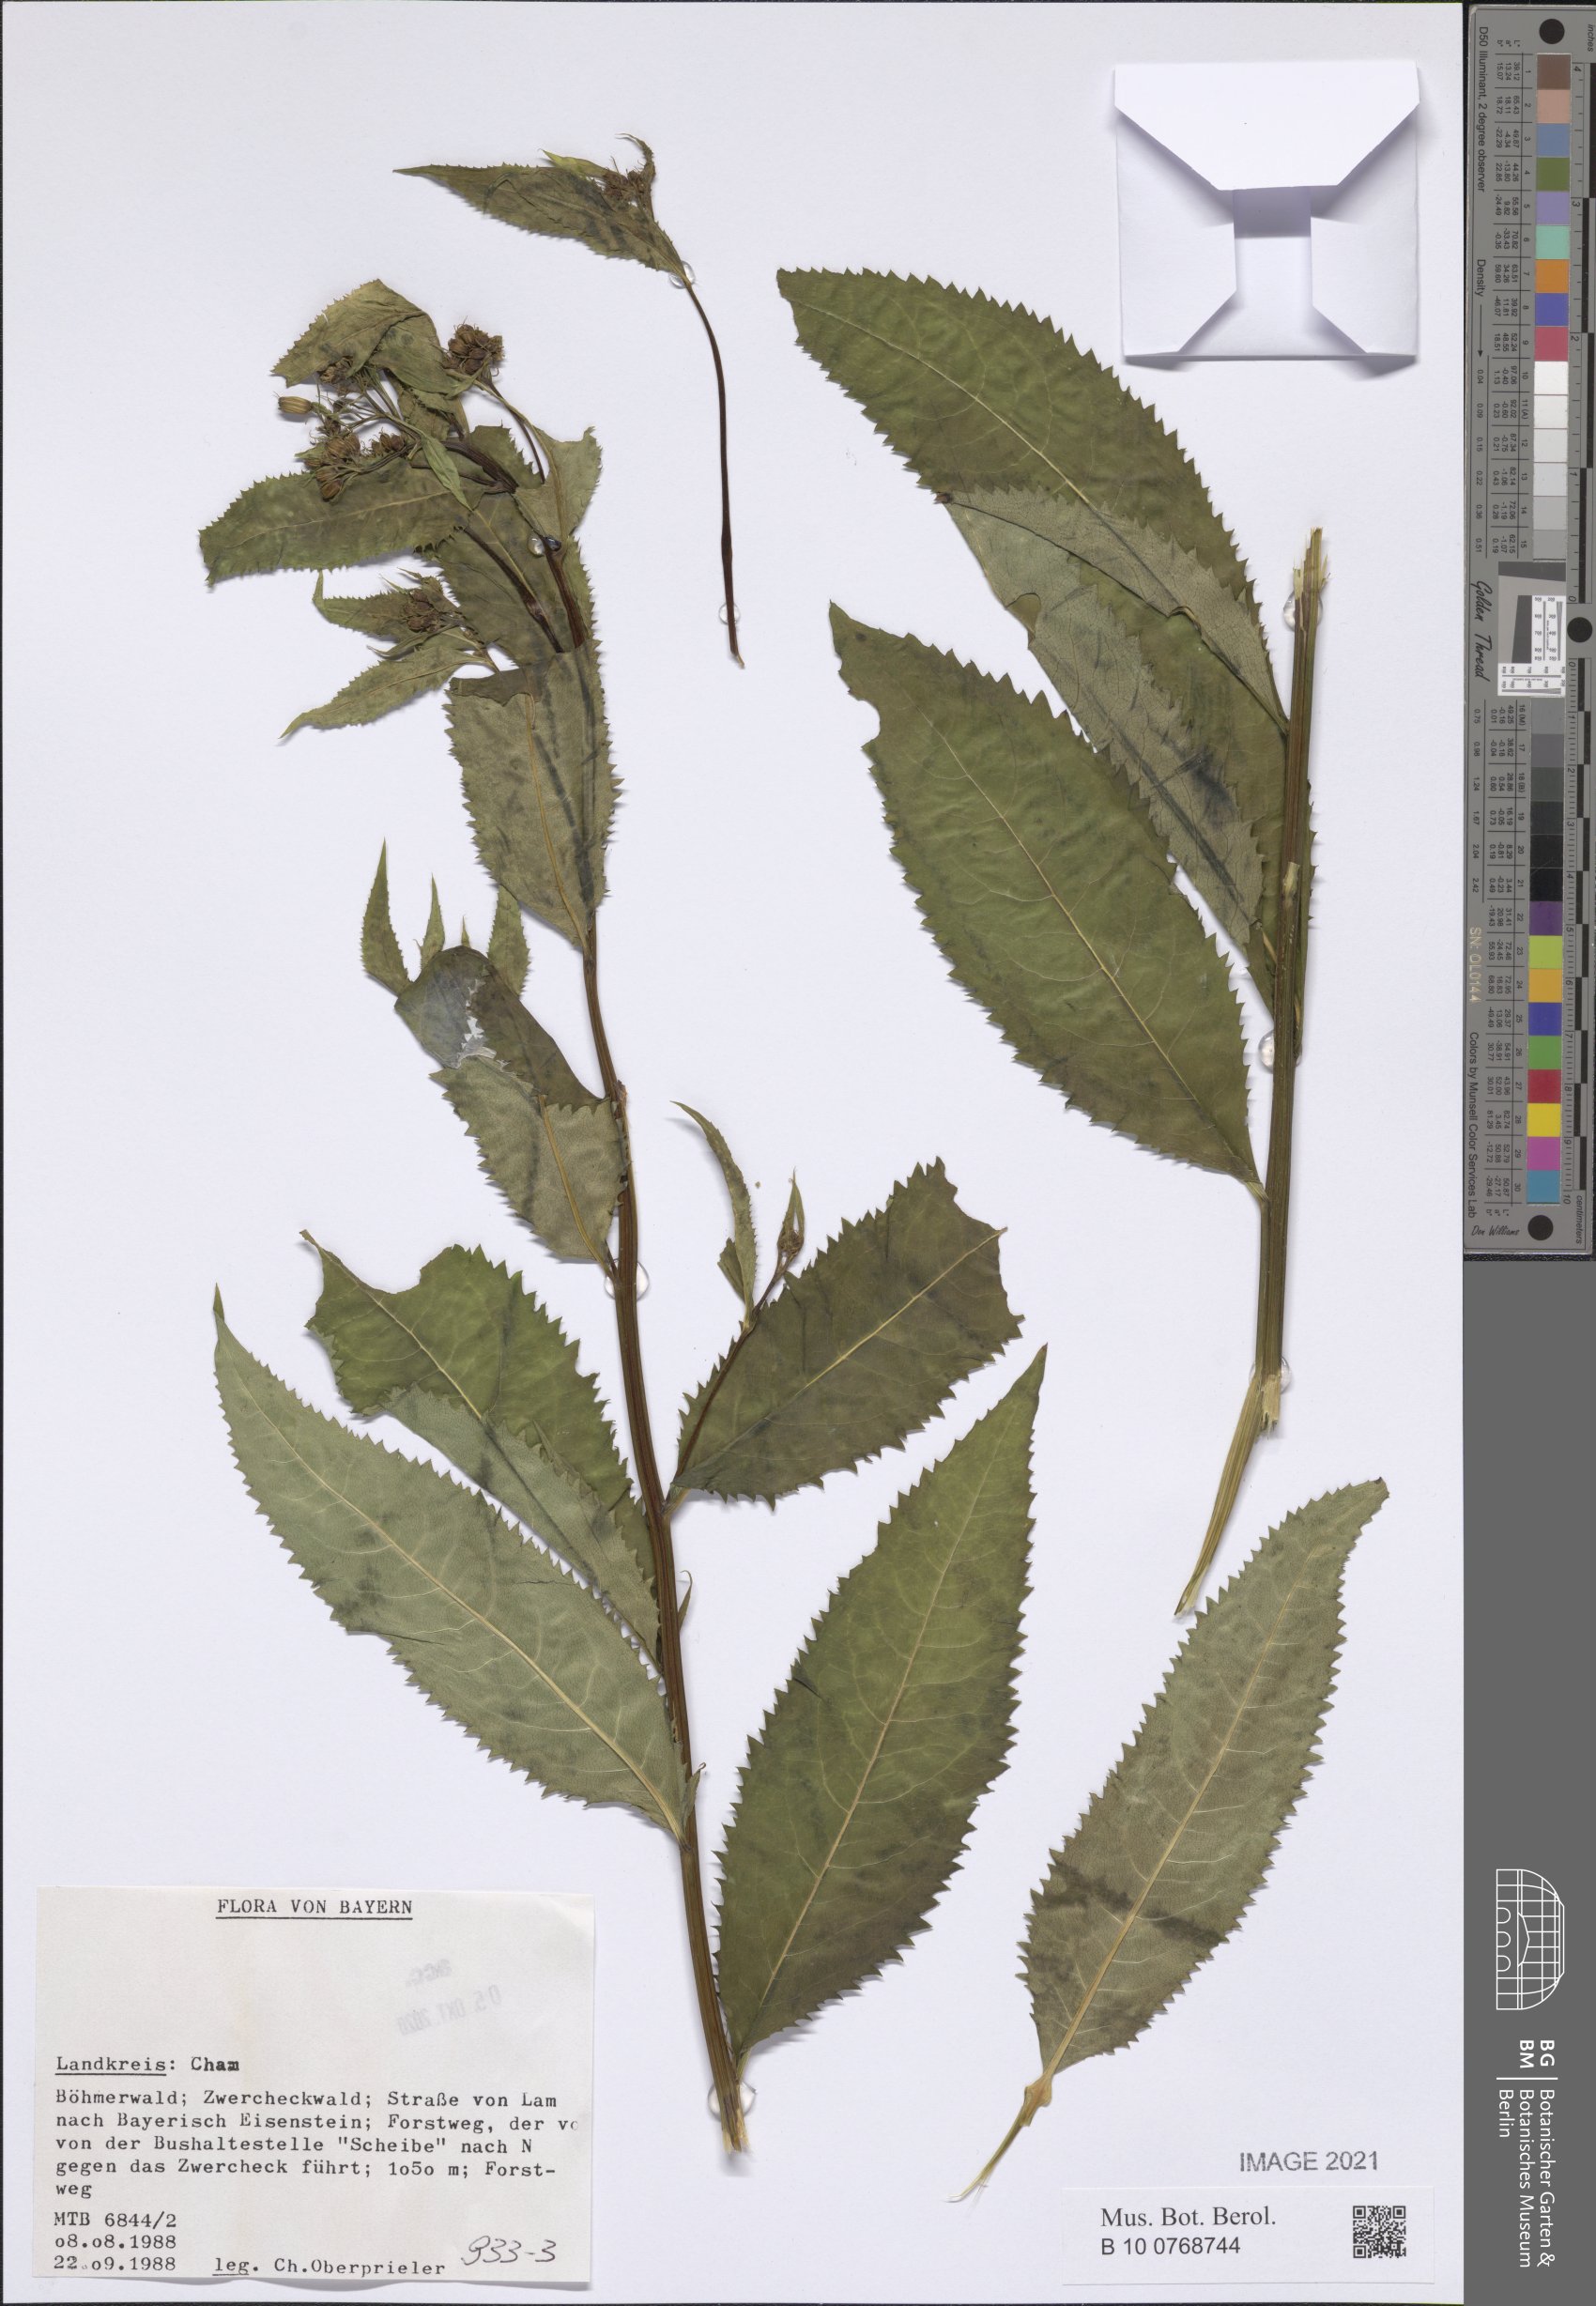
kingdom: Plantae
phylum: Tracheophyta
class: Magnoliopsida
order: Asterales
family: Asteraceae
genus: Senecio
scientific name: Senecio
